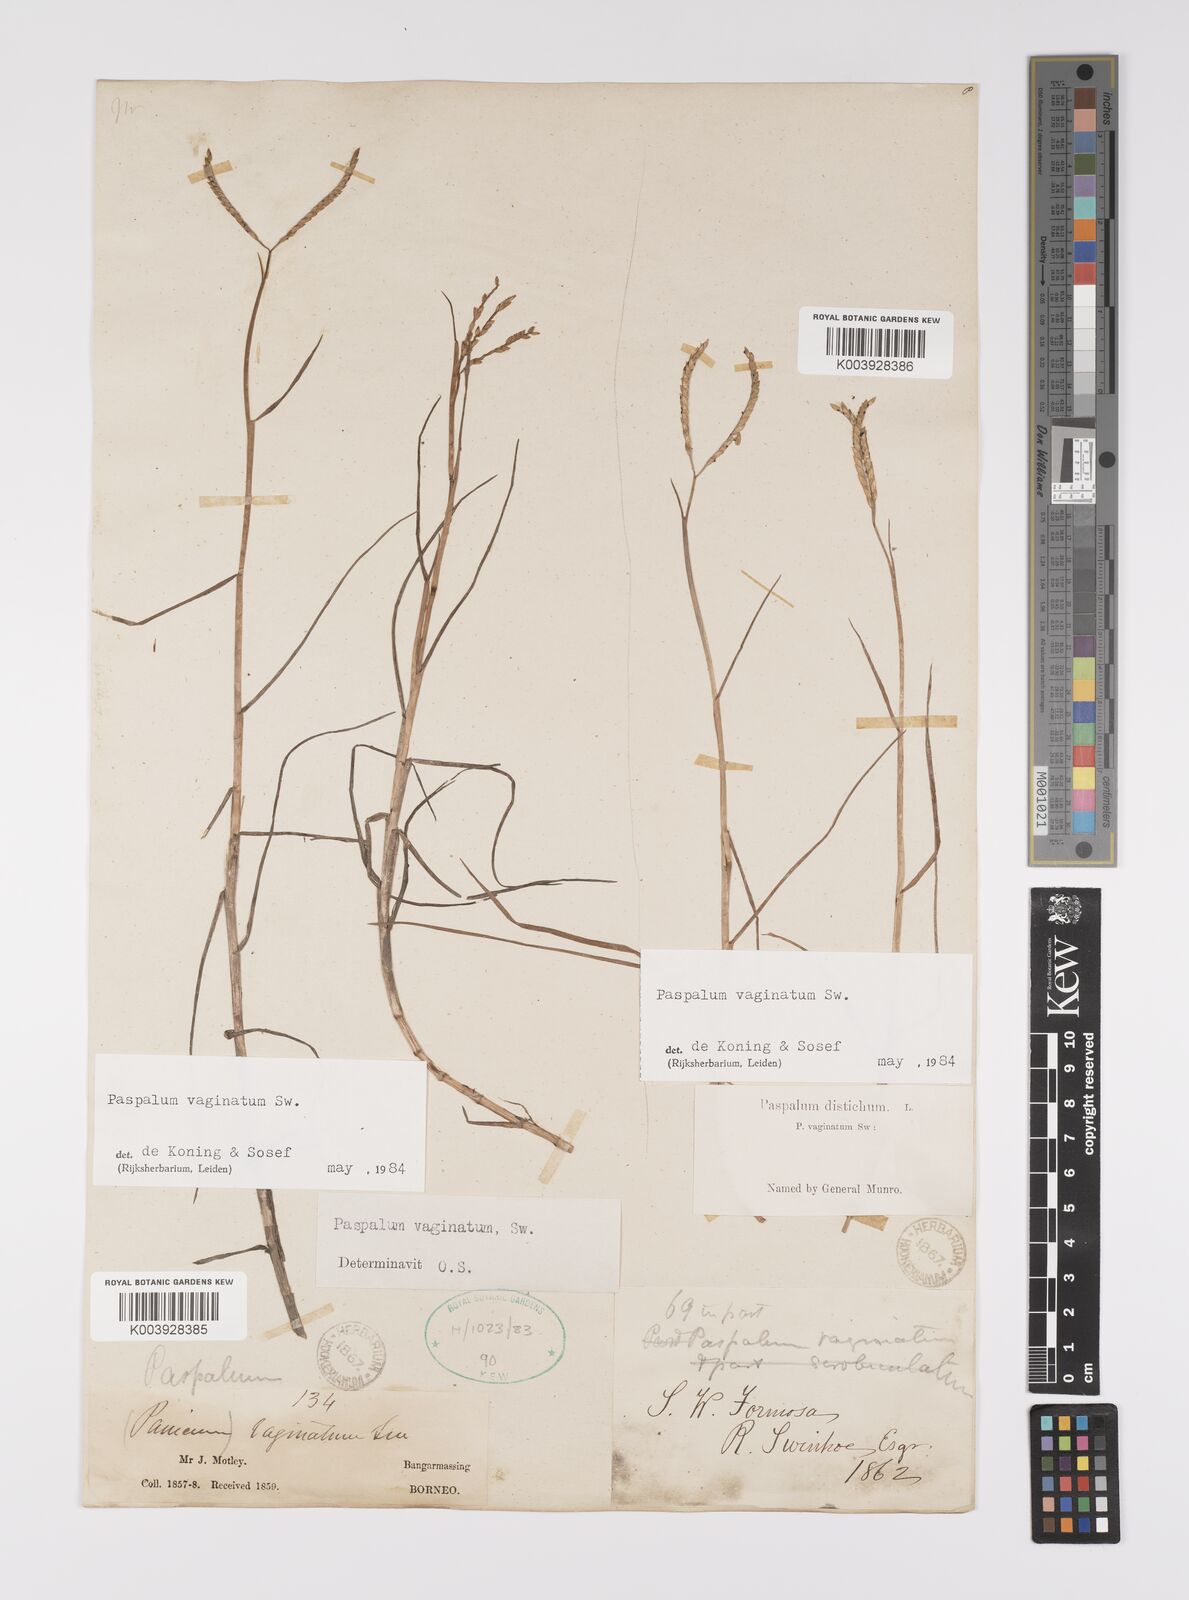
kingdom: Plantae
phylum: Tracheophyta
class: Liliopsida
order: Poales
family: Poaceae
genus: Paspalum
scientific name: Paspalum vaginatum
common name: Seashore paspalum
